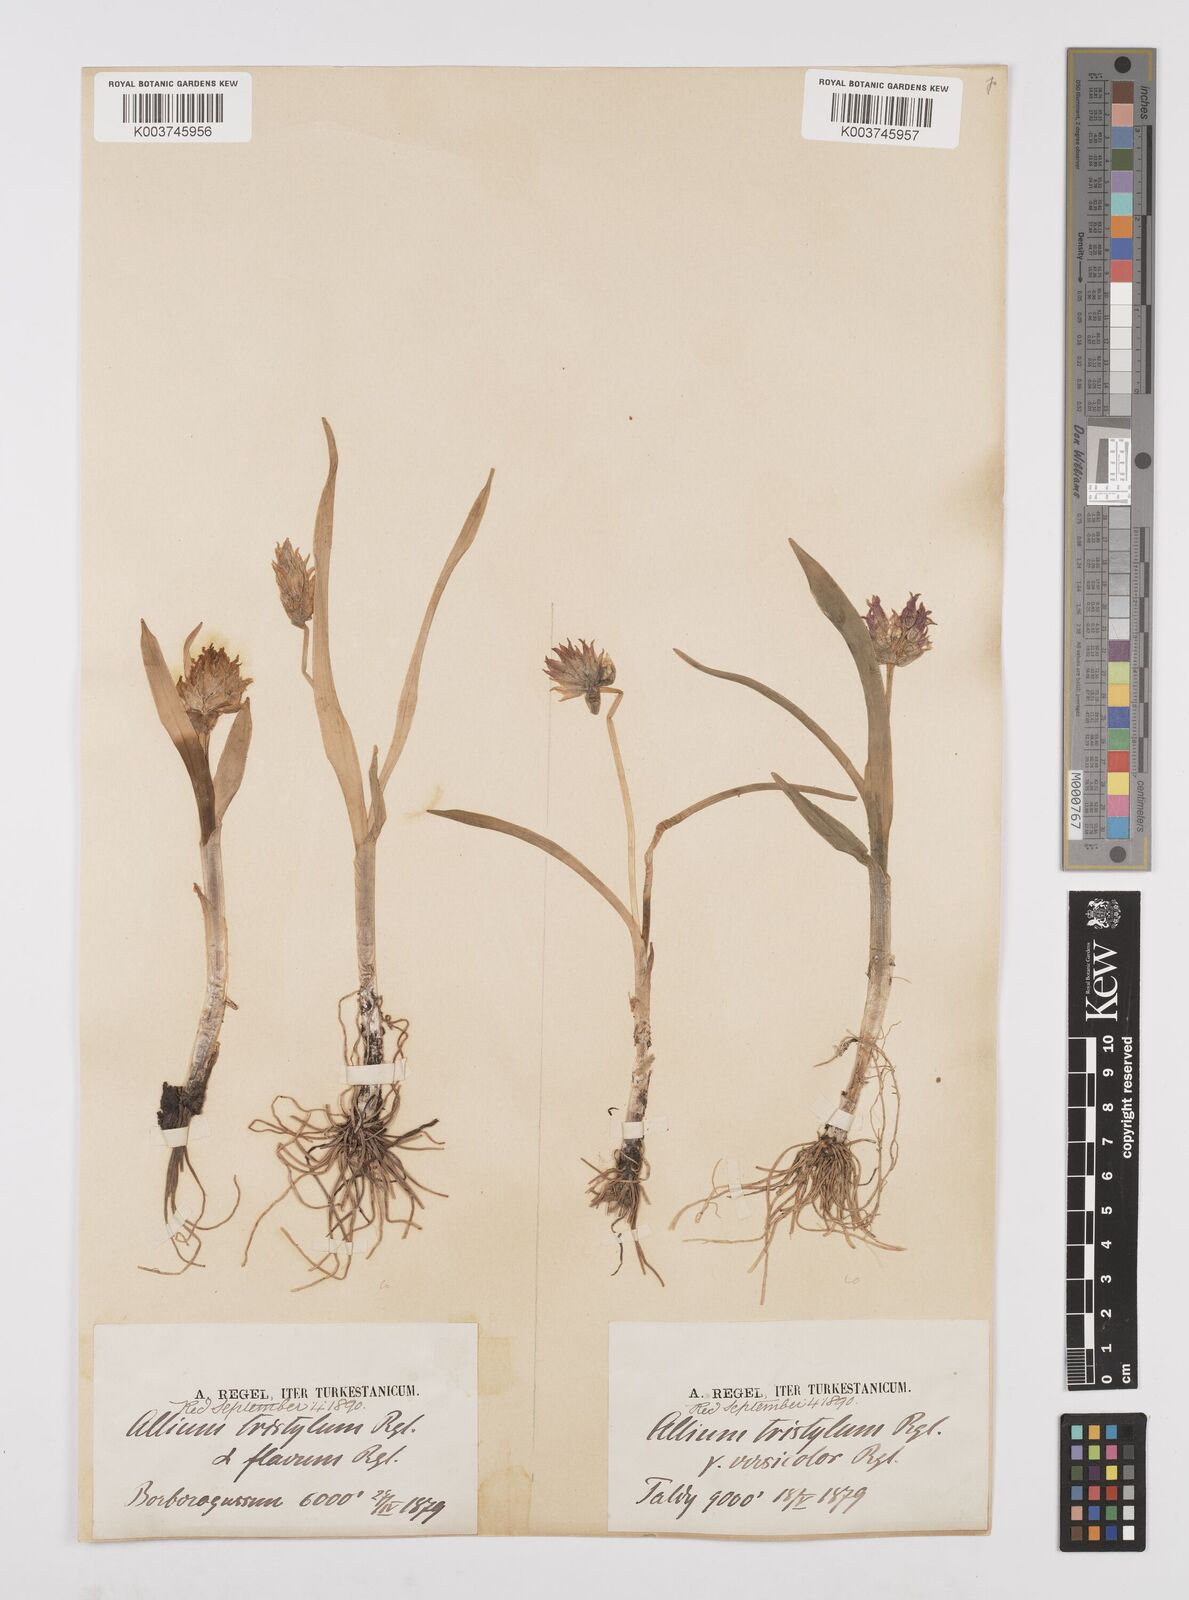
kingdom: Plantae
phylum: Tracheophyta
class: Liliopsida
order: Asparagales
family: Amaryllidaceae
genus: Allium
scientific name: Allium semenovii
